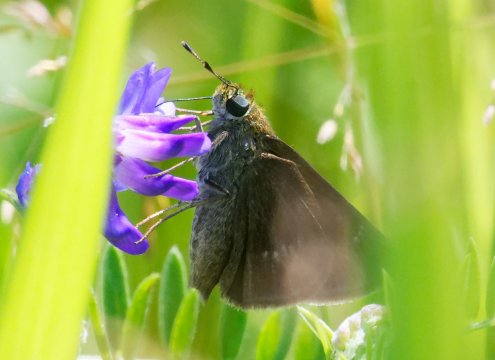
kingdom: Animalia
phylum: Arthropoda
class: Insecta
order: Lepidoptera
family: Hesperiidae
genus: Euphyes
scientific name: Euphyes vestris
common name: Dun Skipper
